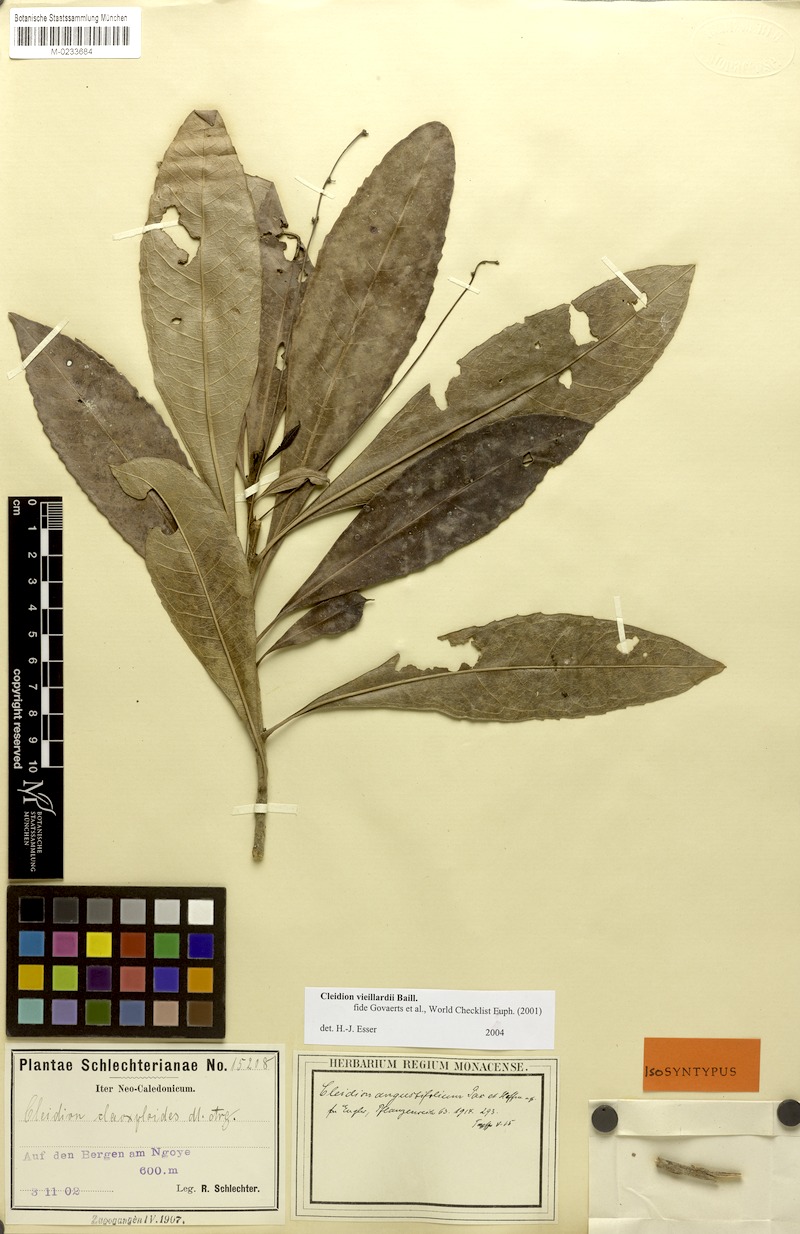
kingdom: Plantae
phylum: Tracheophyta
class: Magnoliopsida
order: Malpighiales
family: Euphorbiaceae
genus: Cleidion
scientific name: Cleidion vieillardii
